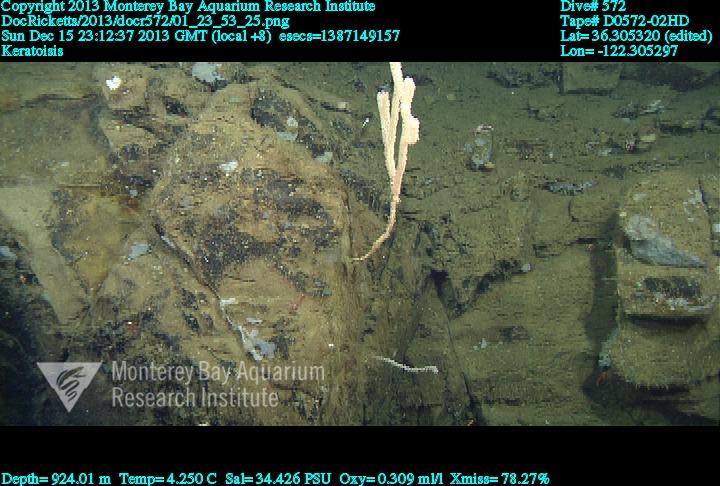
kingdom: Animalia
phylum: Cnidaria
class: Anthozoa
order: Scleralcyonacea
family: Keratoisididae
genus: Keratoisis
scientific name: Keratoisis
